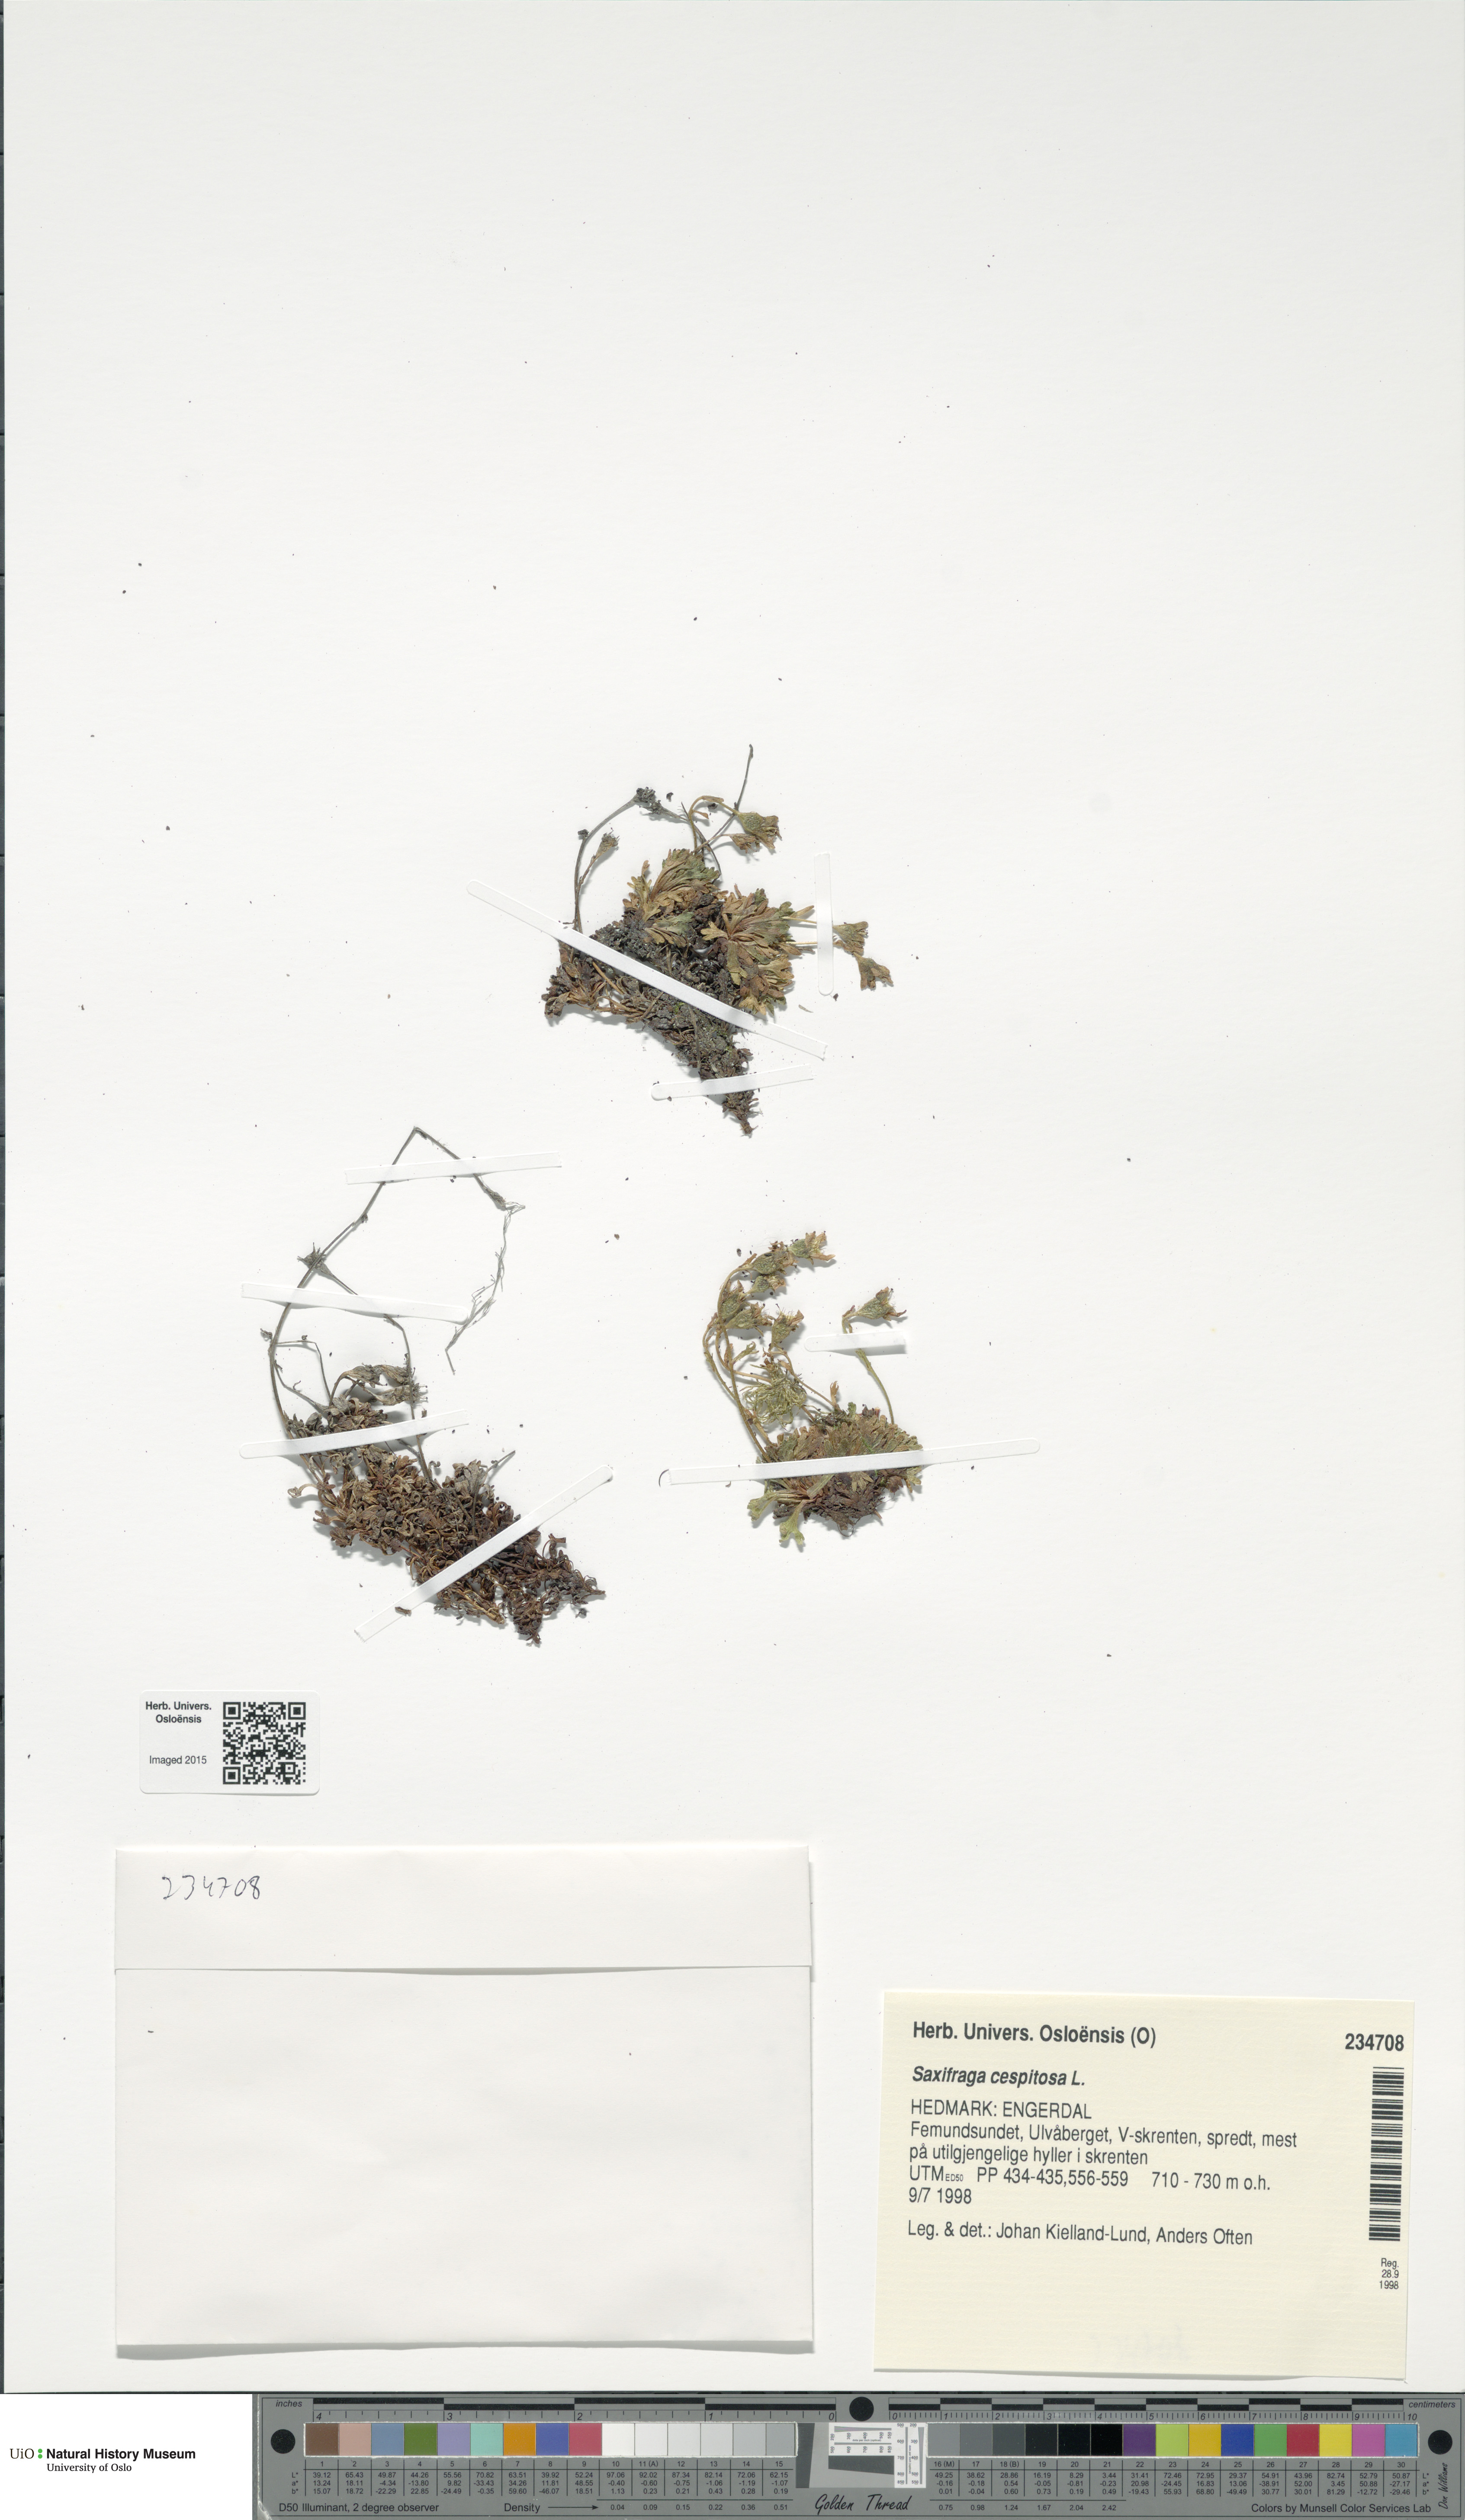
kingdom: Plantae
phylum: Tracheophyta
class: Magnoliopsida
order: Saxifragales
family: Saxifragaceae
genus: Saxifraga
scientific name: Saxifraga cespitosa
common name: Tufted saxifrage
